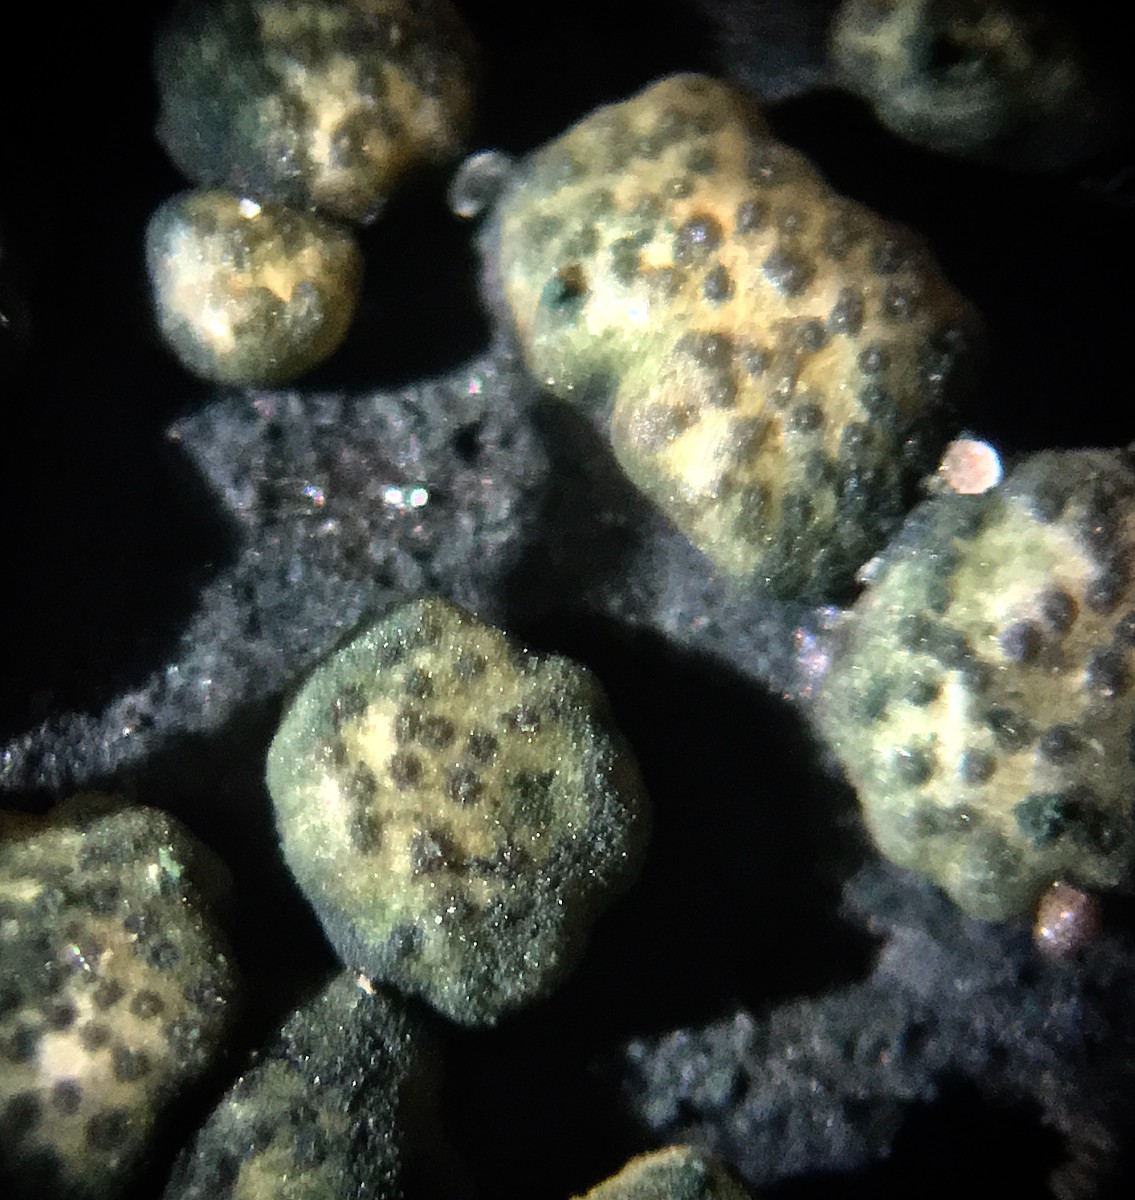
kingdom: Fungi
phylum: Ascomycota
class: Sordariomycetes
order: Hypocreales
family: Hypocreaceae
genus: Trichoderma
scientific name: Trichoderma strictipile
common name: grønprikket kødkerne
